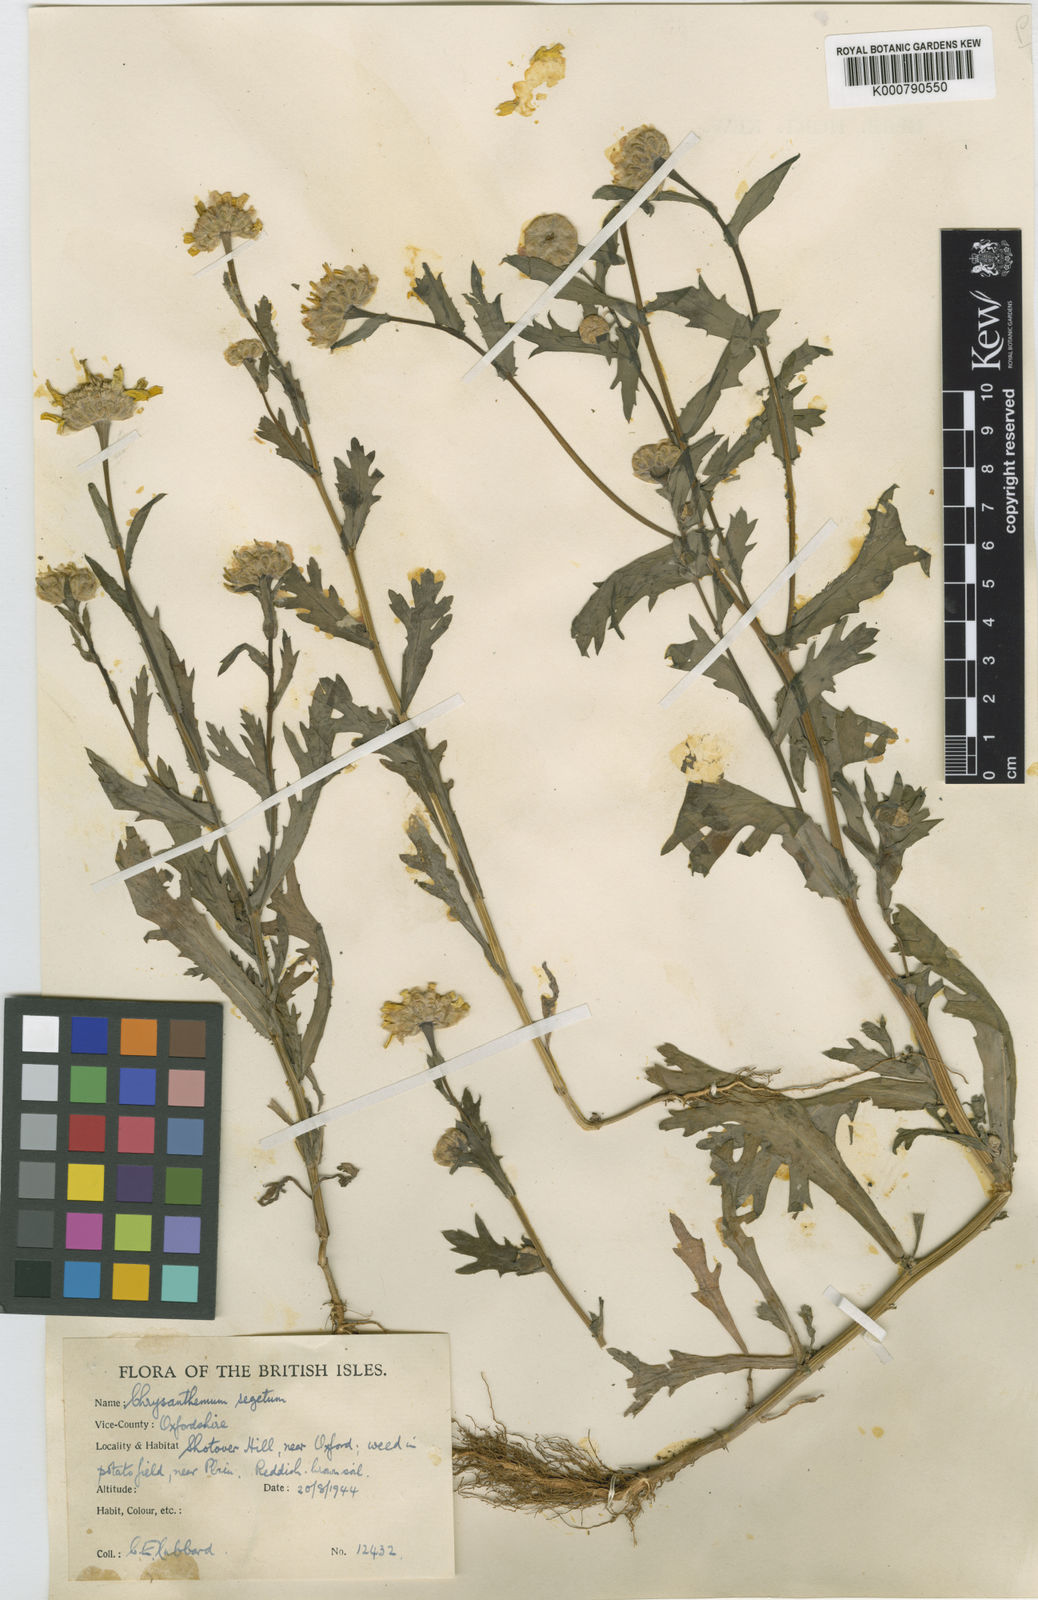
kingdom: Plantae
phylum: Tracheophyta
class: Magnoliopsida
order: Asterales
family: Asteraceae
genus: Glebionis
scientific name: Glebionis
